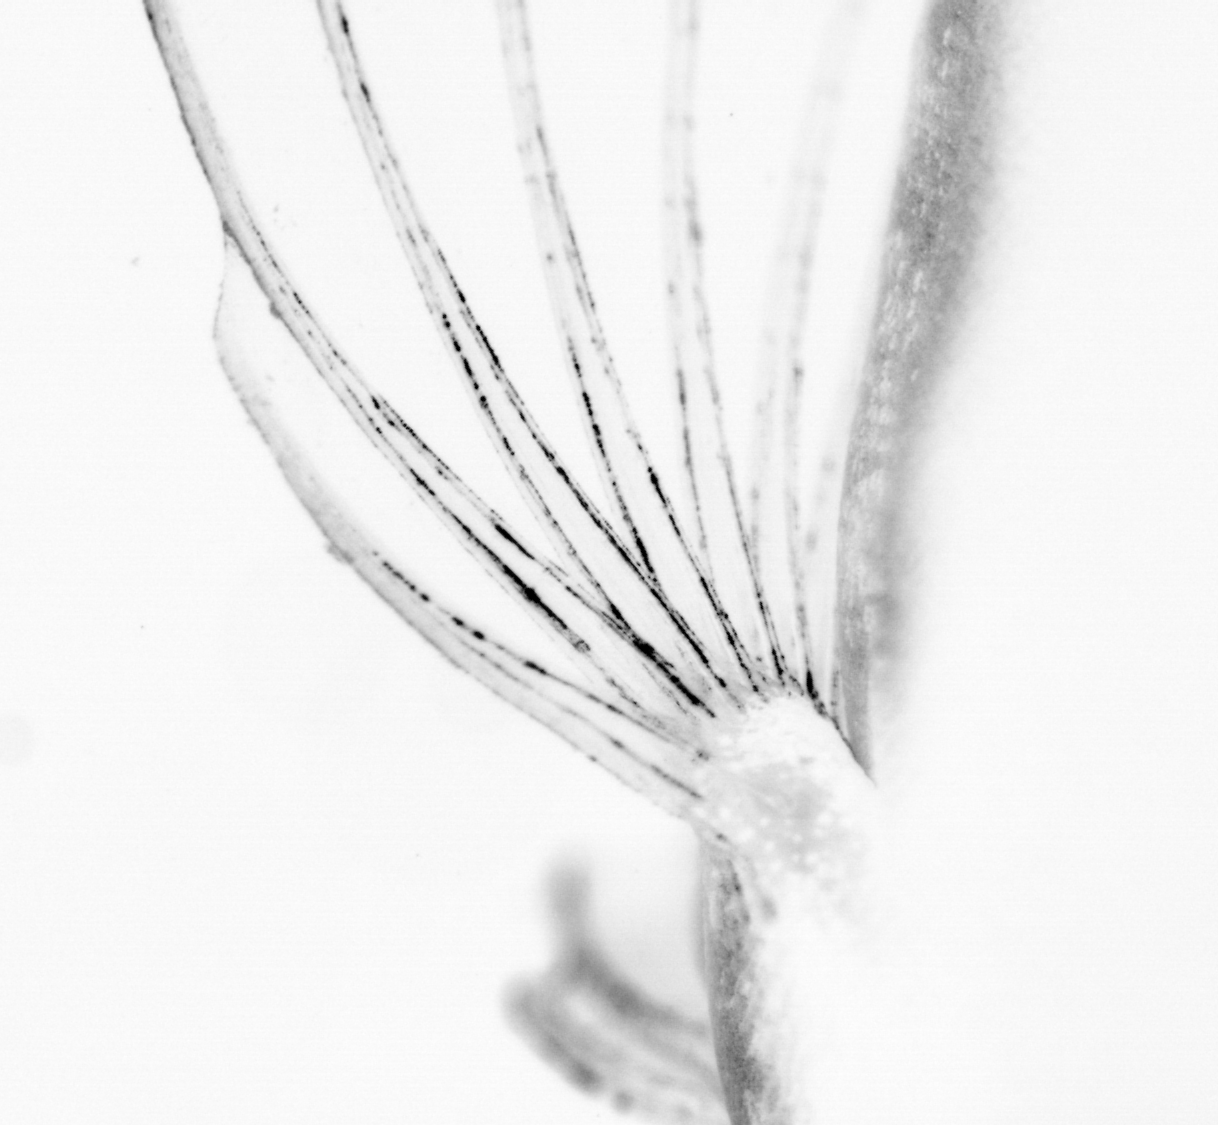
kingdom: Animalia
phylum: Chordata
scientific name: Chordata
